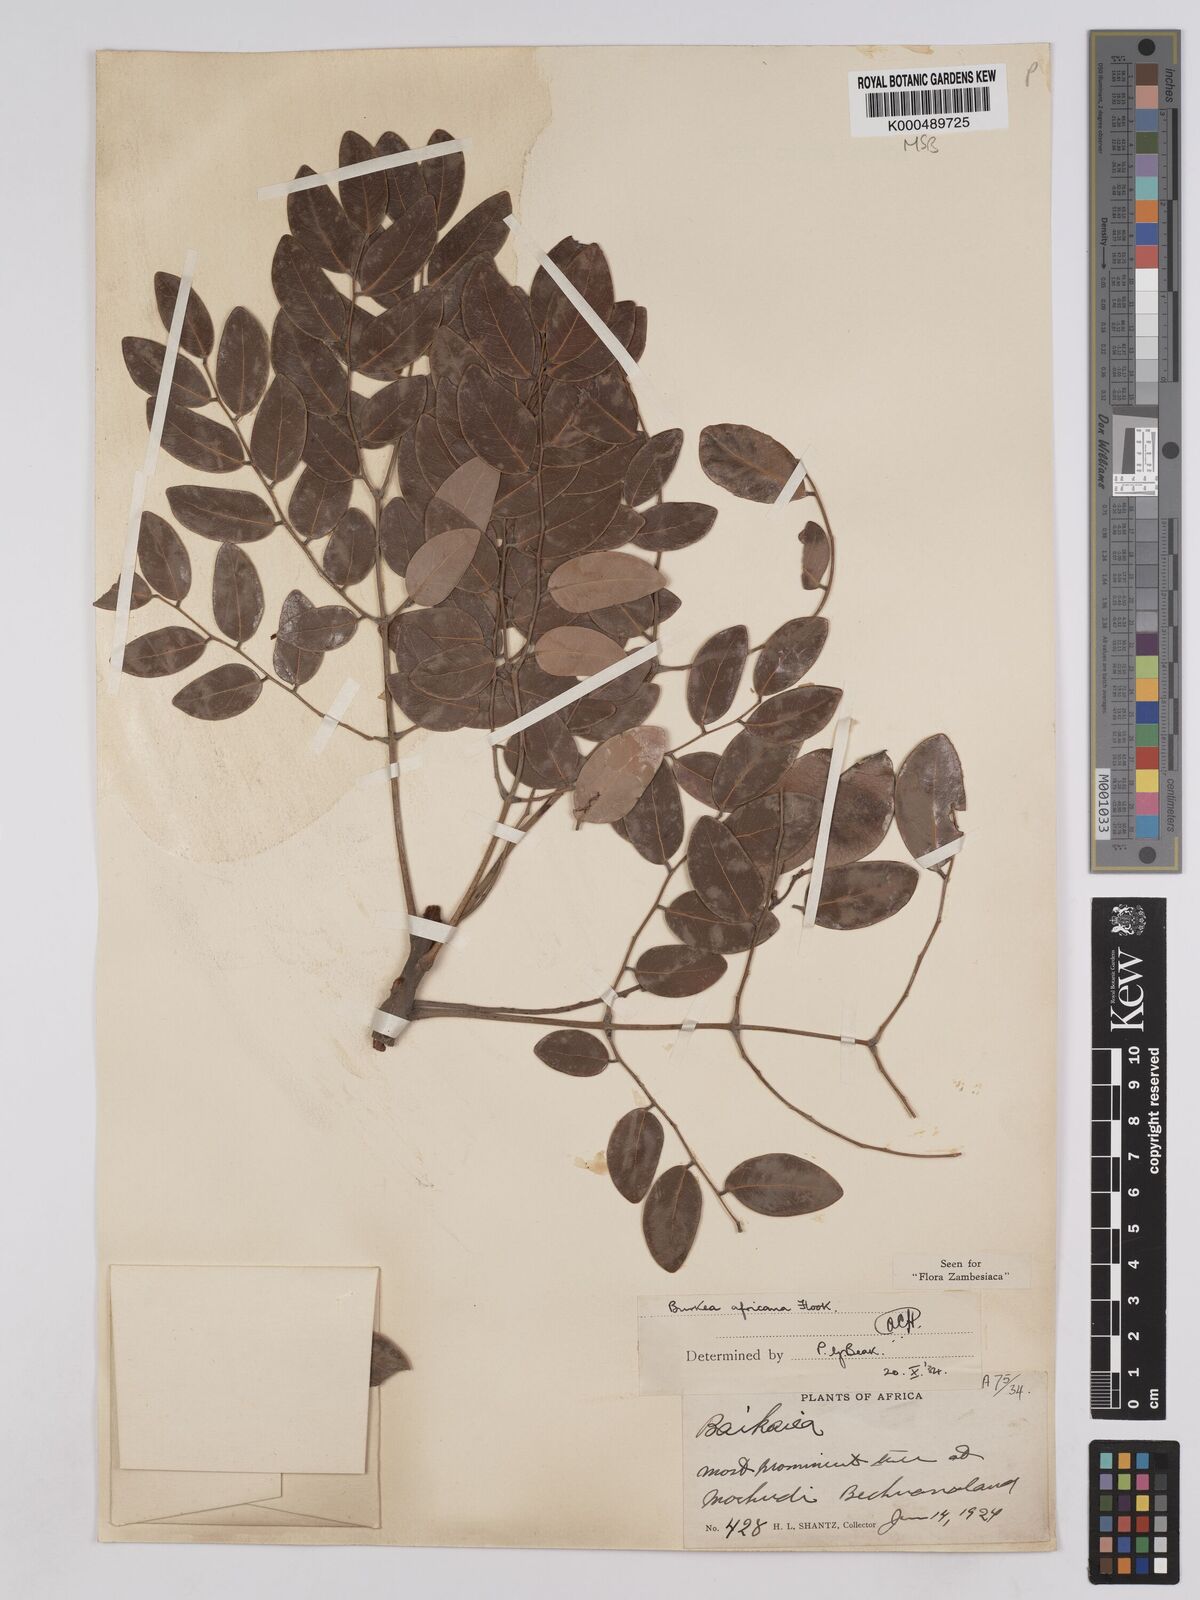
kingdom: Plantae
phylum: Tracheophyta
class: Magnoliopsida
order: Fabales
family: Fabaceae
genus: Burkea
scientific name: Burkea africana
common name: Mkalati tree
